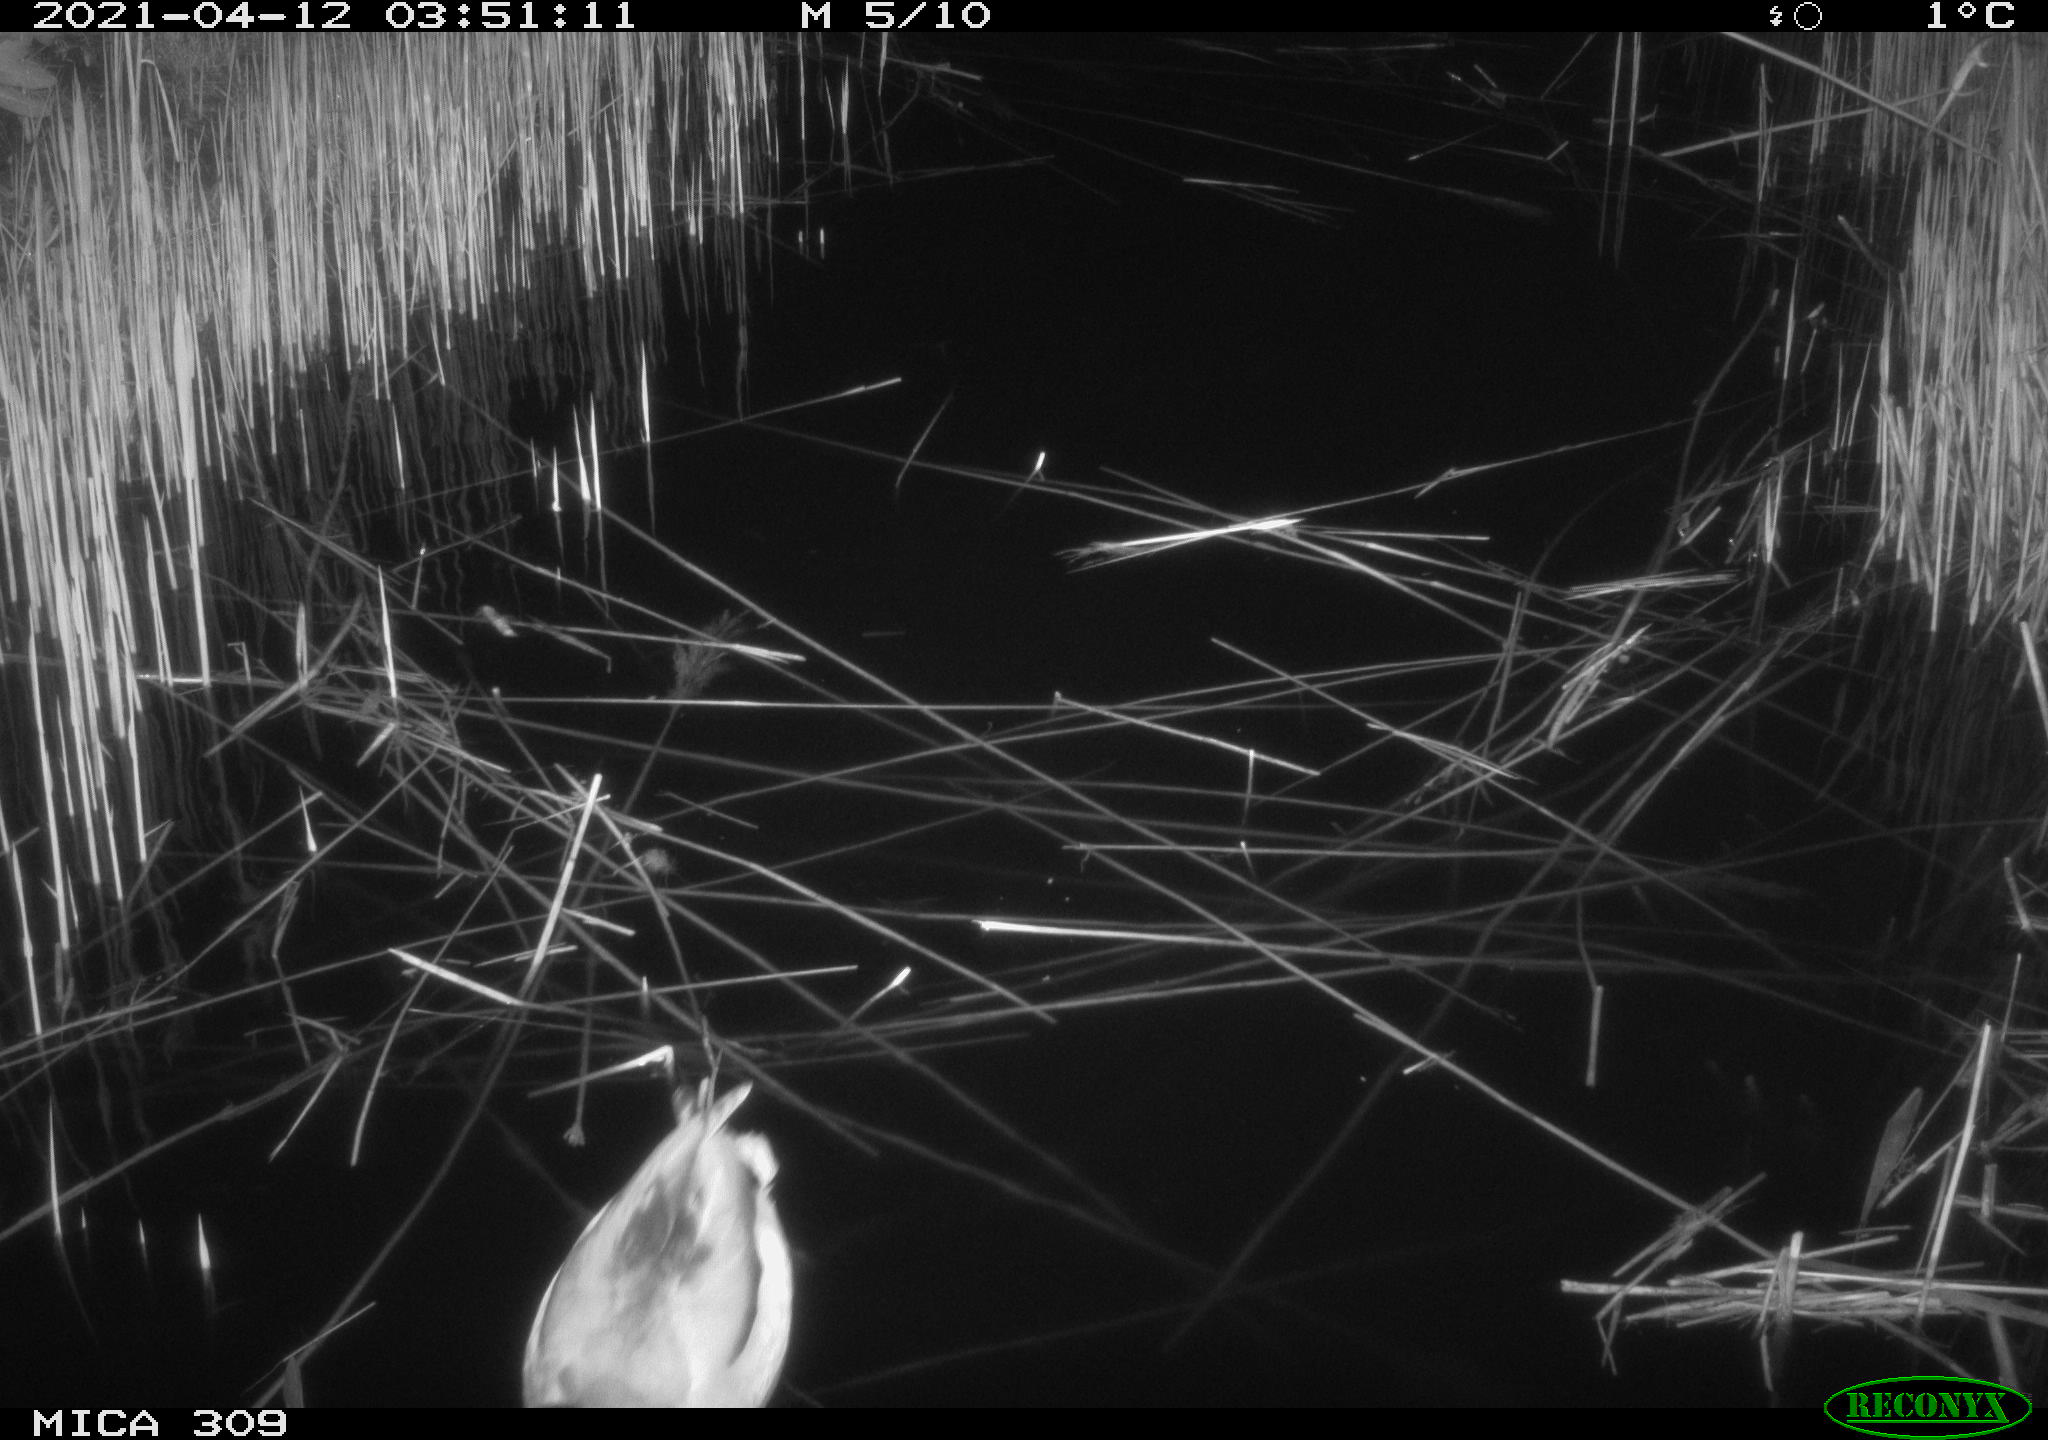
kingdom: Animalia
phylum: Chordata
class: Aves
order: Anseriformes
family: Anatidae
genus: Anas
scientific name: Anas platyrhynchos
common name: Mallard
